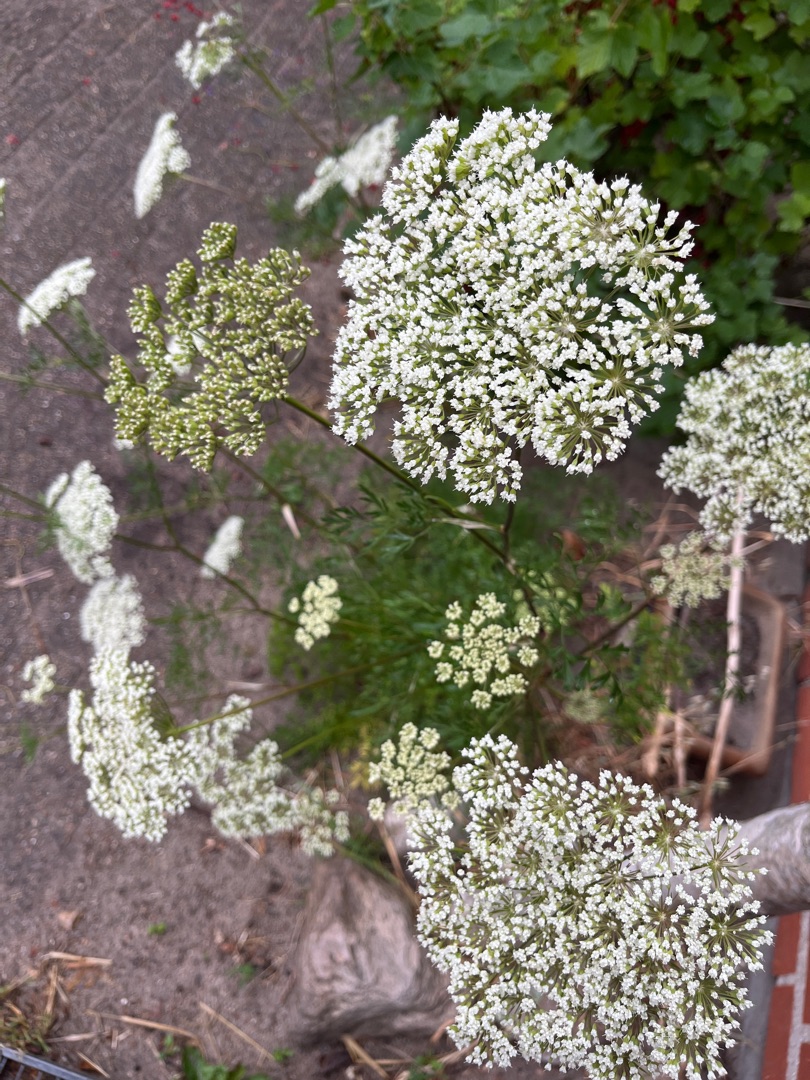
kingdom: Plantae
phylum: Tracheophyta
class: Magnoliopsida
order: Apiales
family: Apiaceae
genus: Daucus
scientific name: Daucus carota
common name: Vild gulerod
